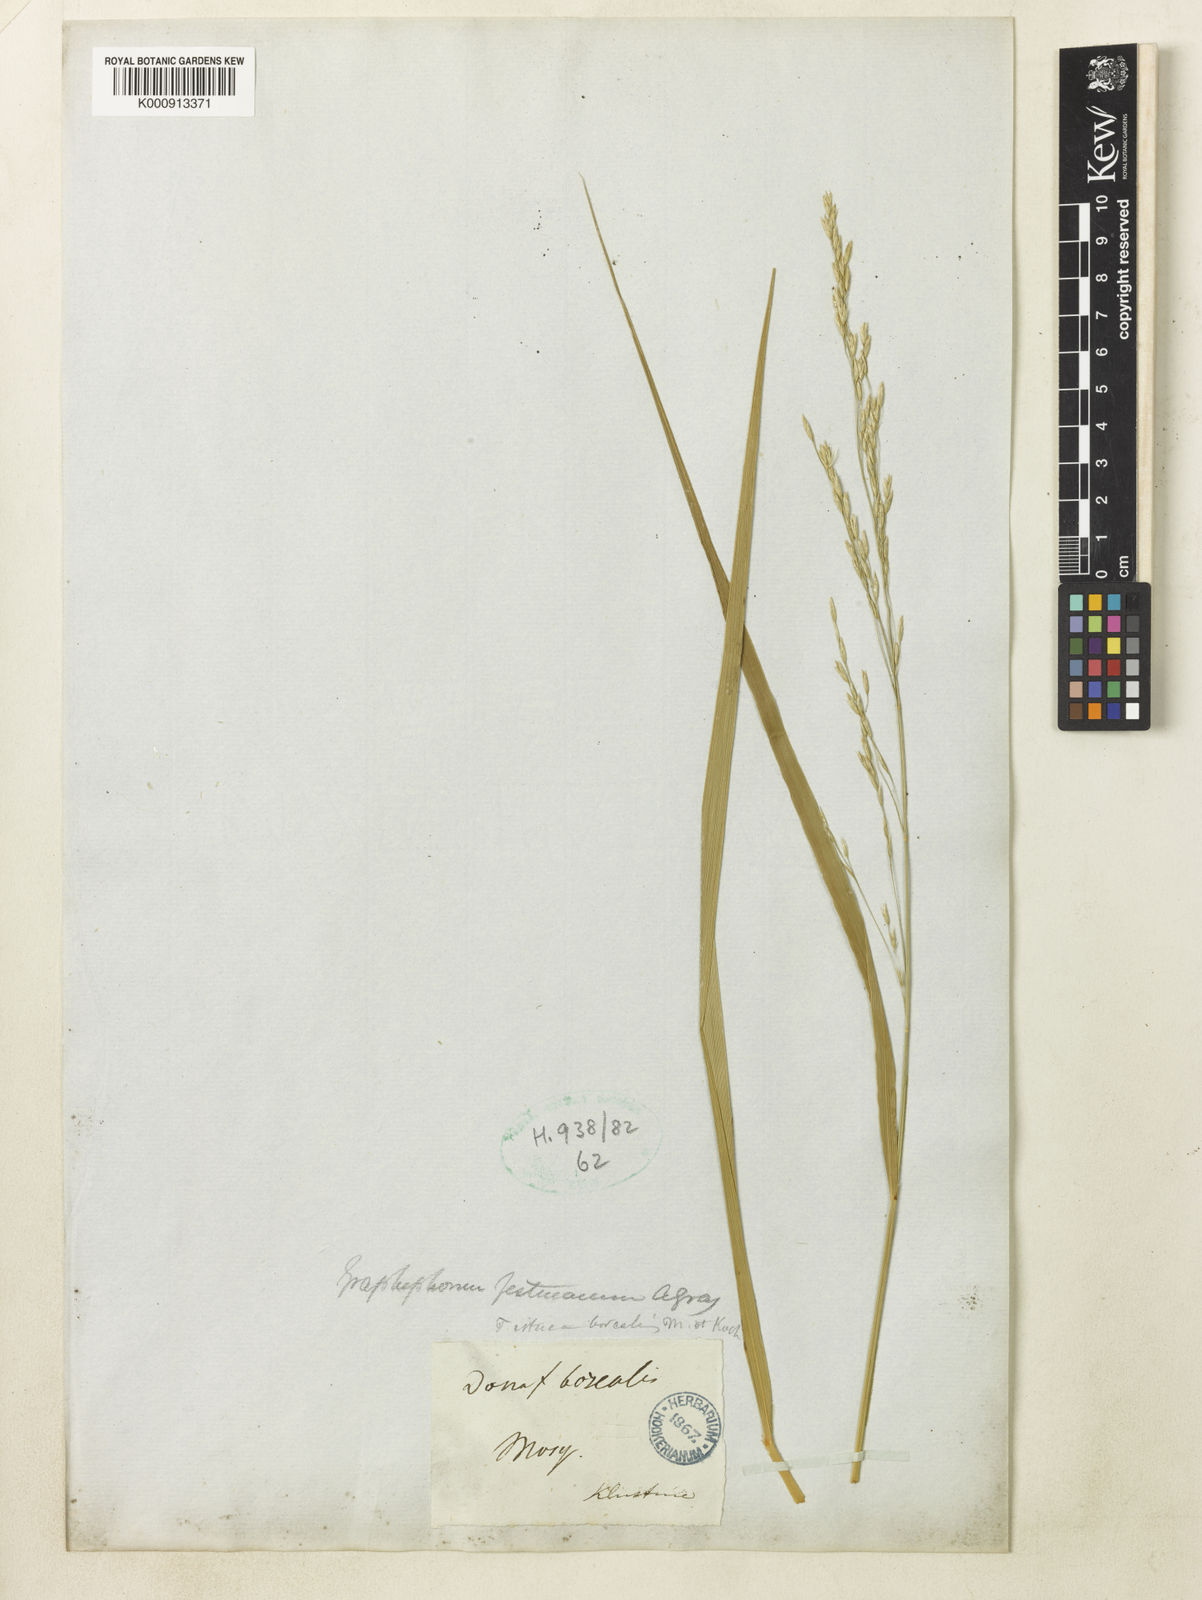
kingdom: Plantae
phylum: Tracheophyta
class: Liliopsida
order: Poales
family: Poaceae
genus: Scolochloa
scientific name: Scolochloa festucacea
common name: Common rivergrass
